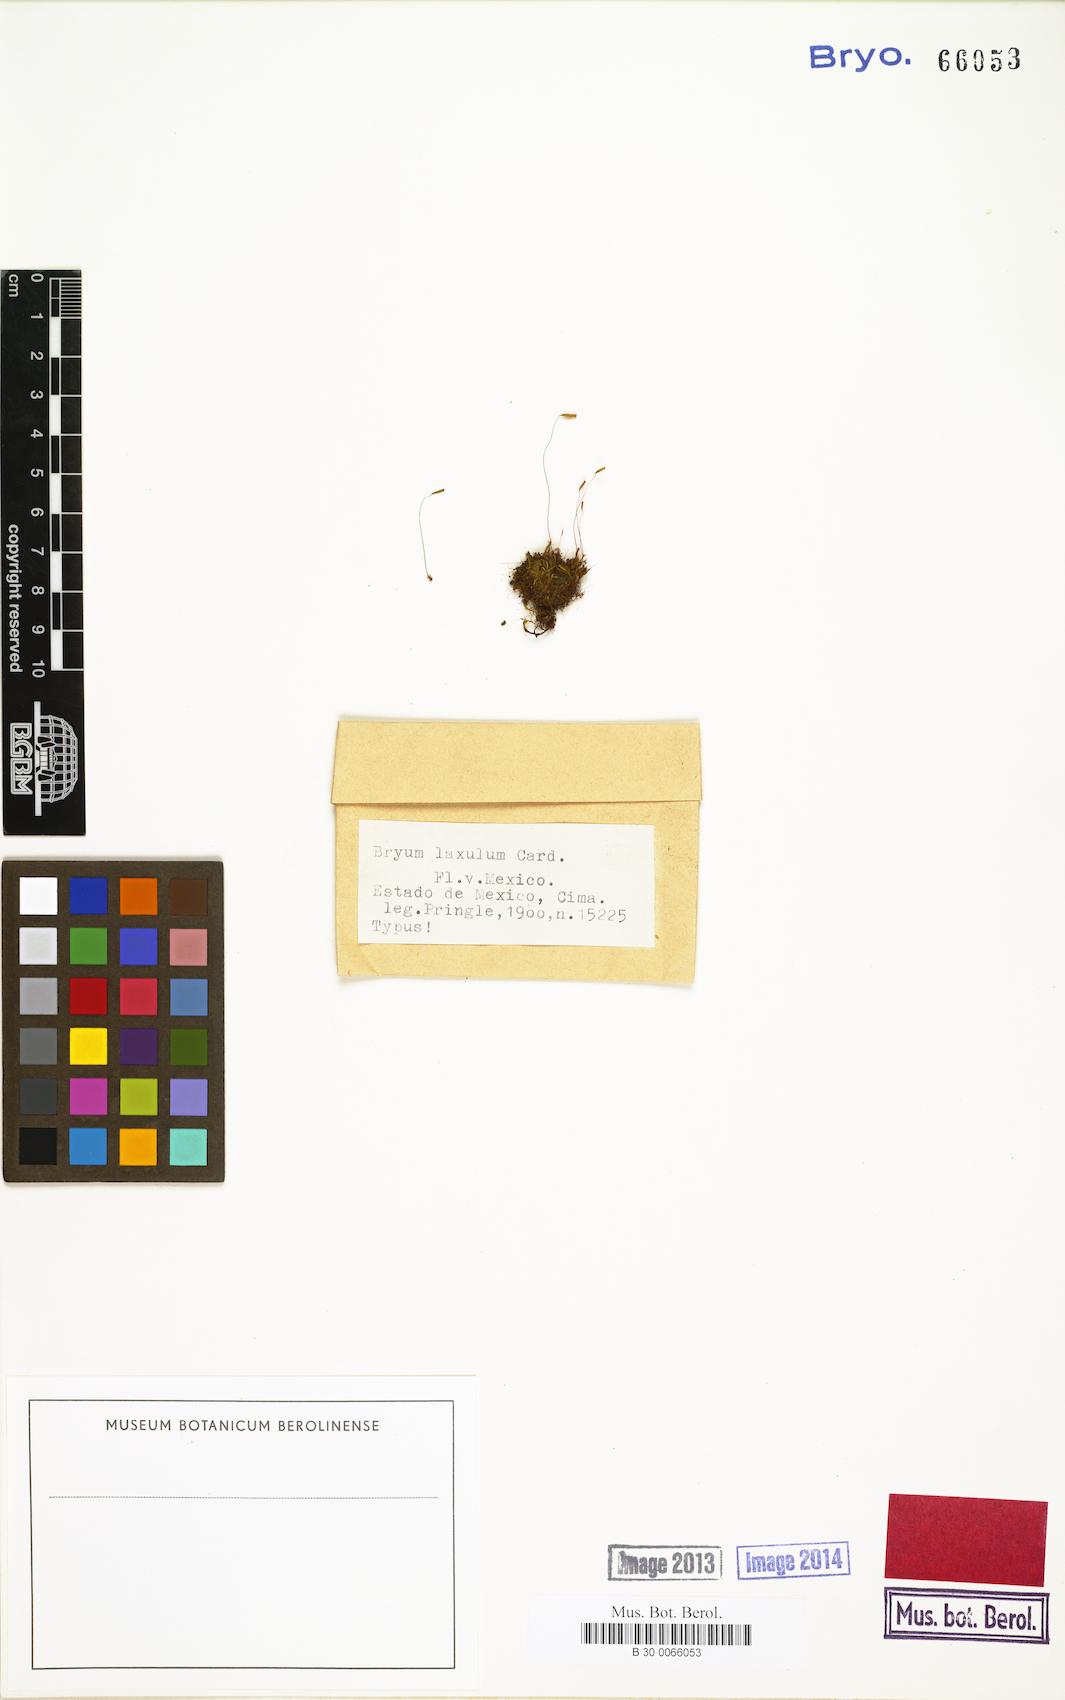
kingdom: Plantae
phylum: Bryophyta
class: Bryopsida
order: Bryales
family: Bryaceae
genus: Rosulabryum
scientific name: Rosulabryum capillare
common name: Capillary thread-moss
